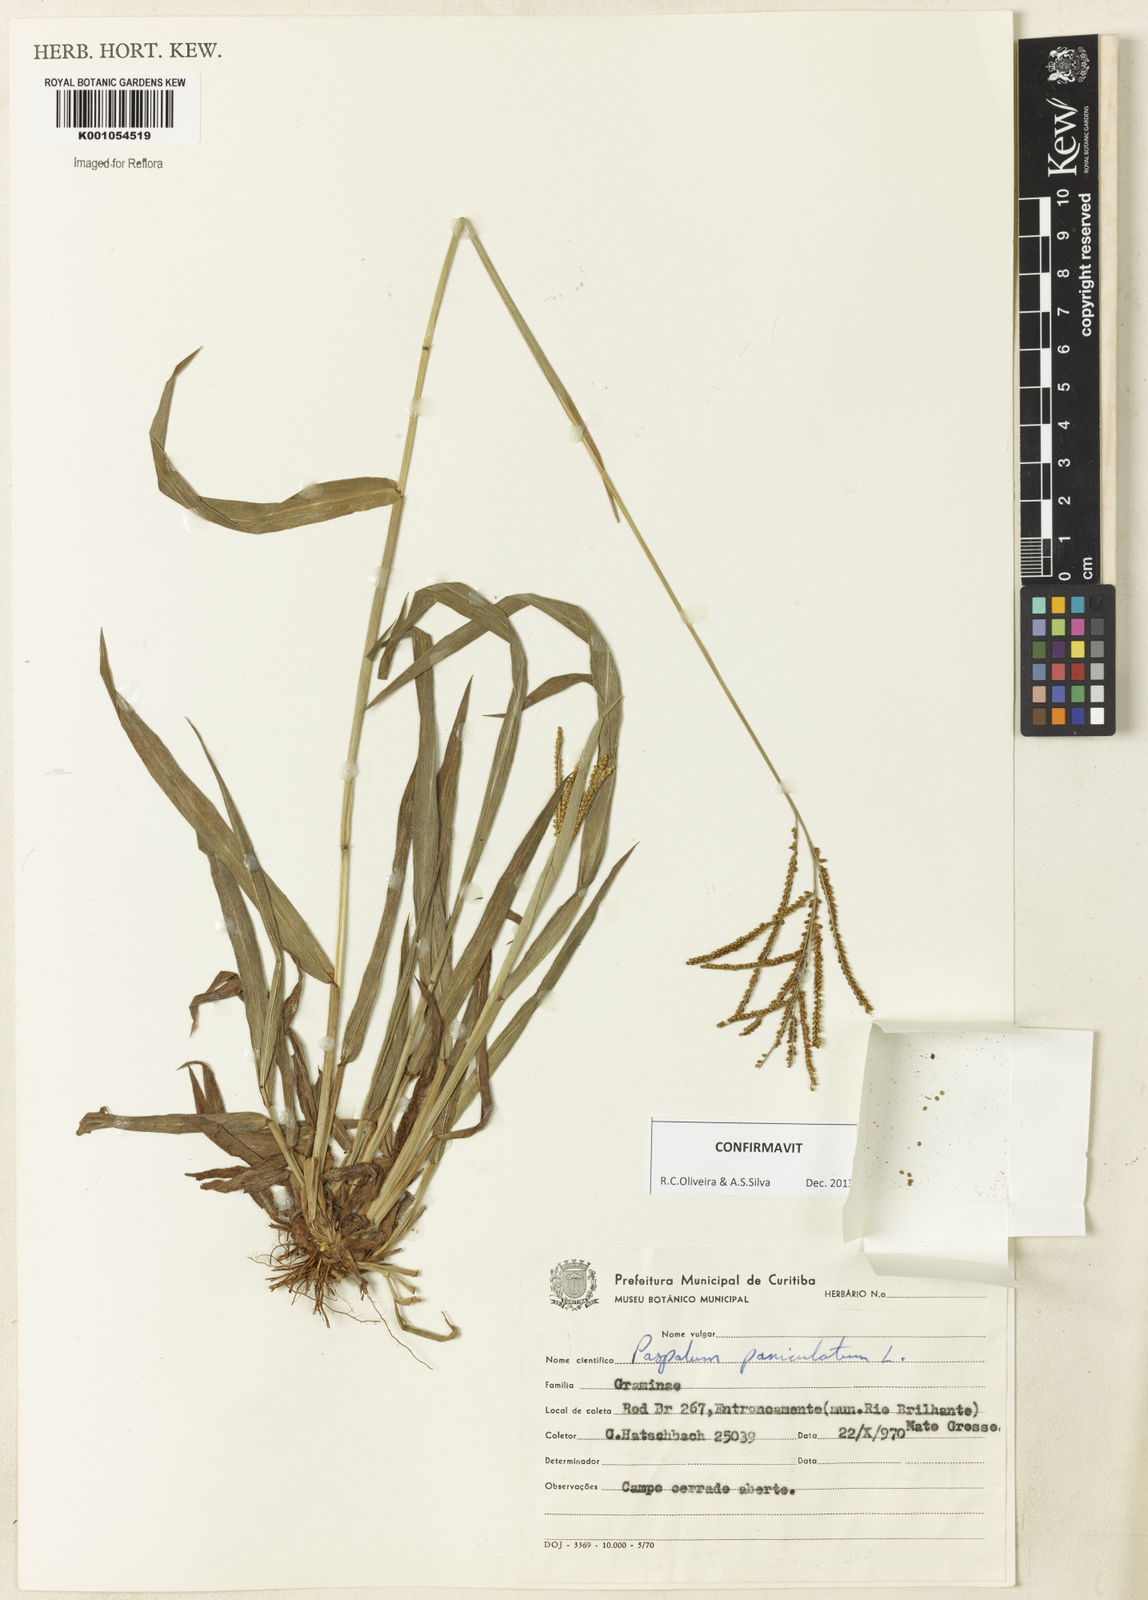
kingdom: Plantae
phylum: Tracheophyta
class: Liliopsida
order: Poales
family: Poaceae
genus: Paspalum
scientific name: Paspalum paniculatum
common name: Arrocillo
